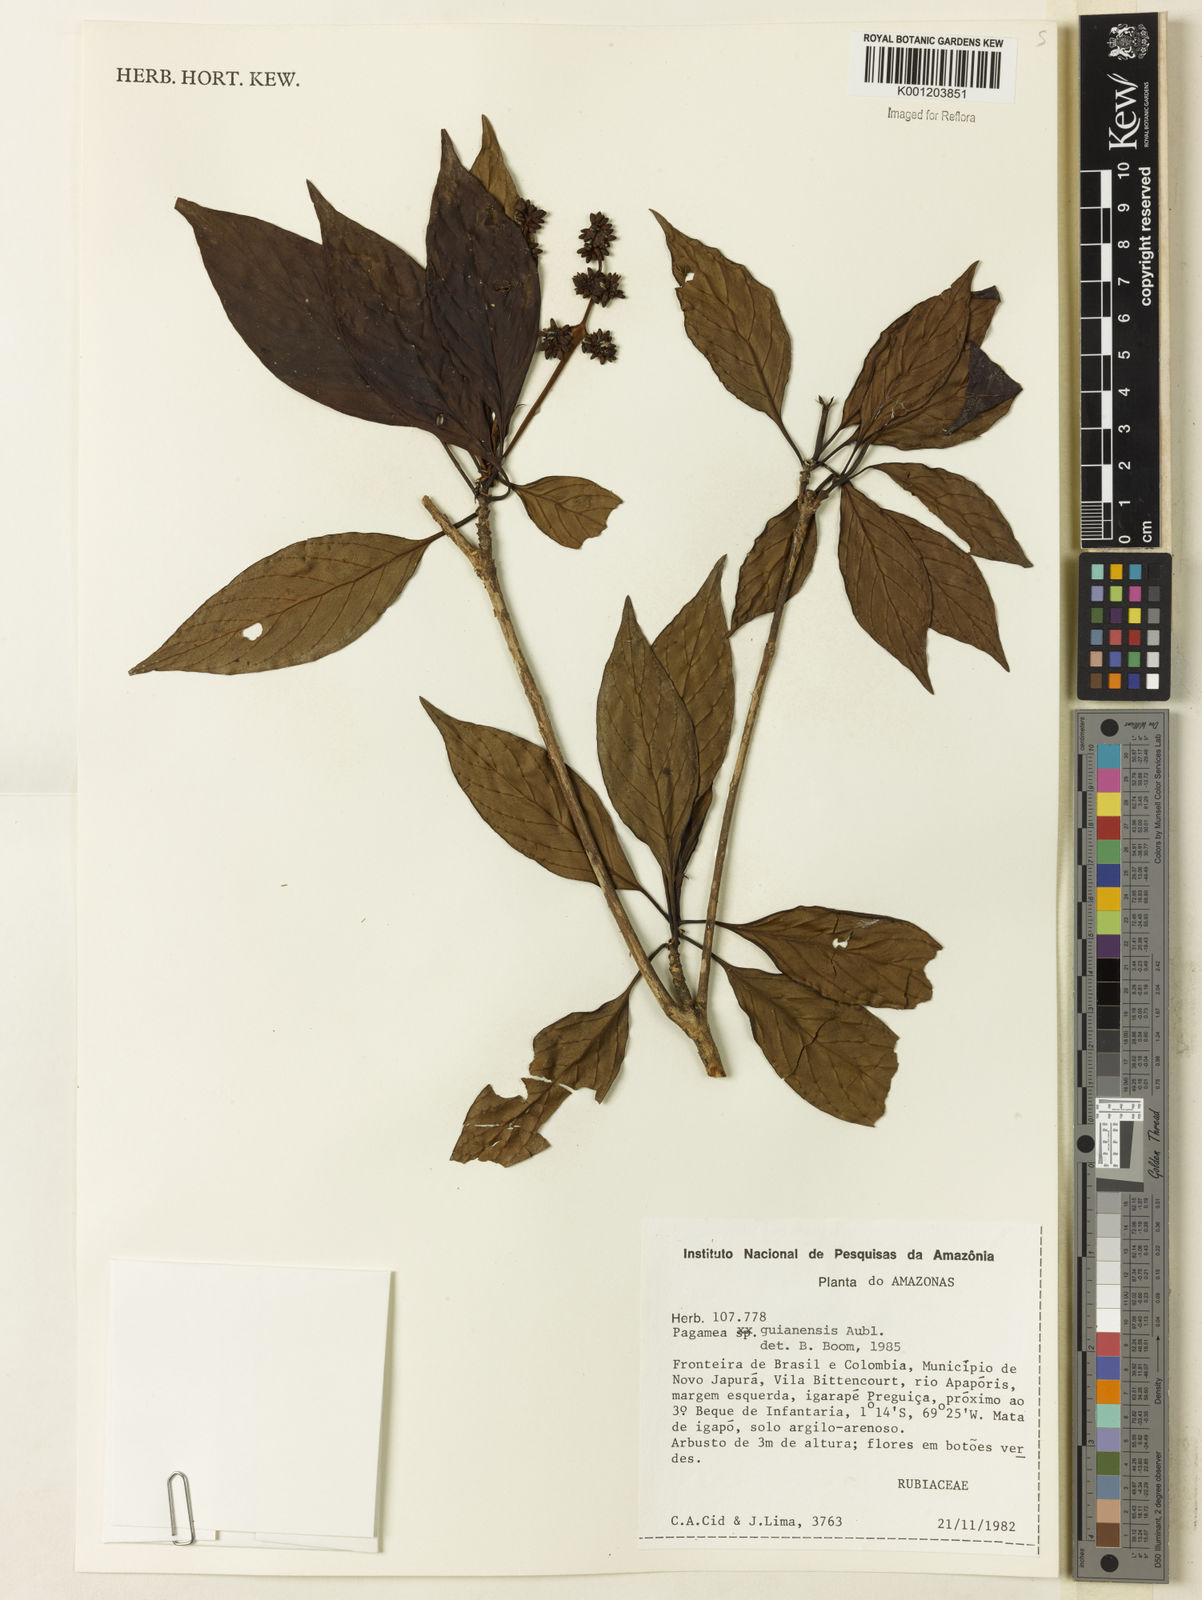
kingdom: Plantae
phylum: Tracheophyta
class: Magnoliopsida
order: Gentianales
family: Rubiaceae
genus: Pagamea
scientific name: Pagamea guianensis
